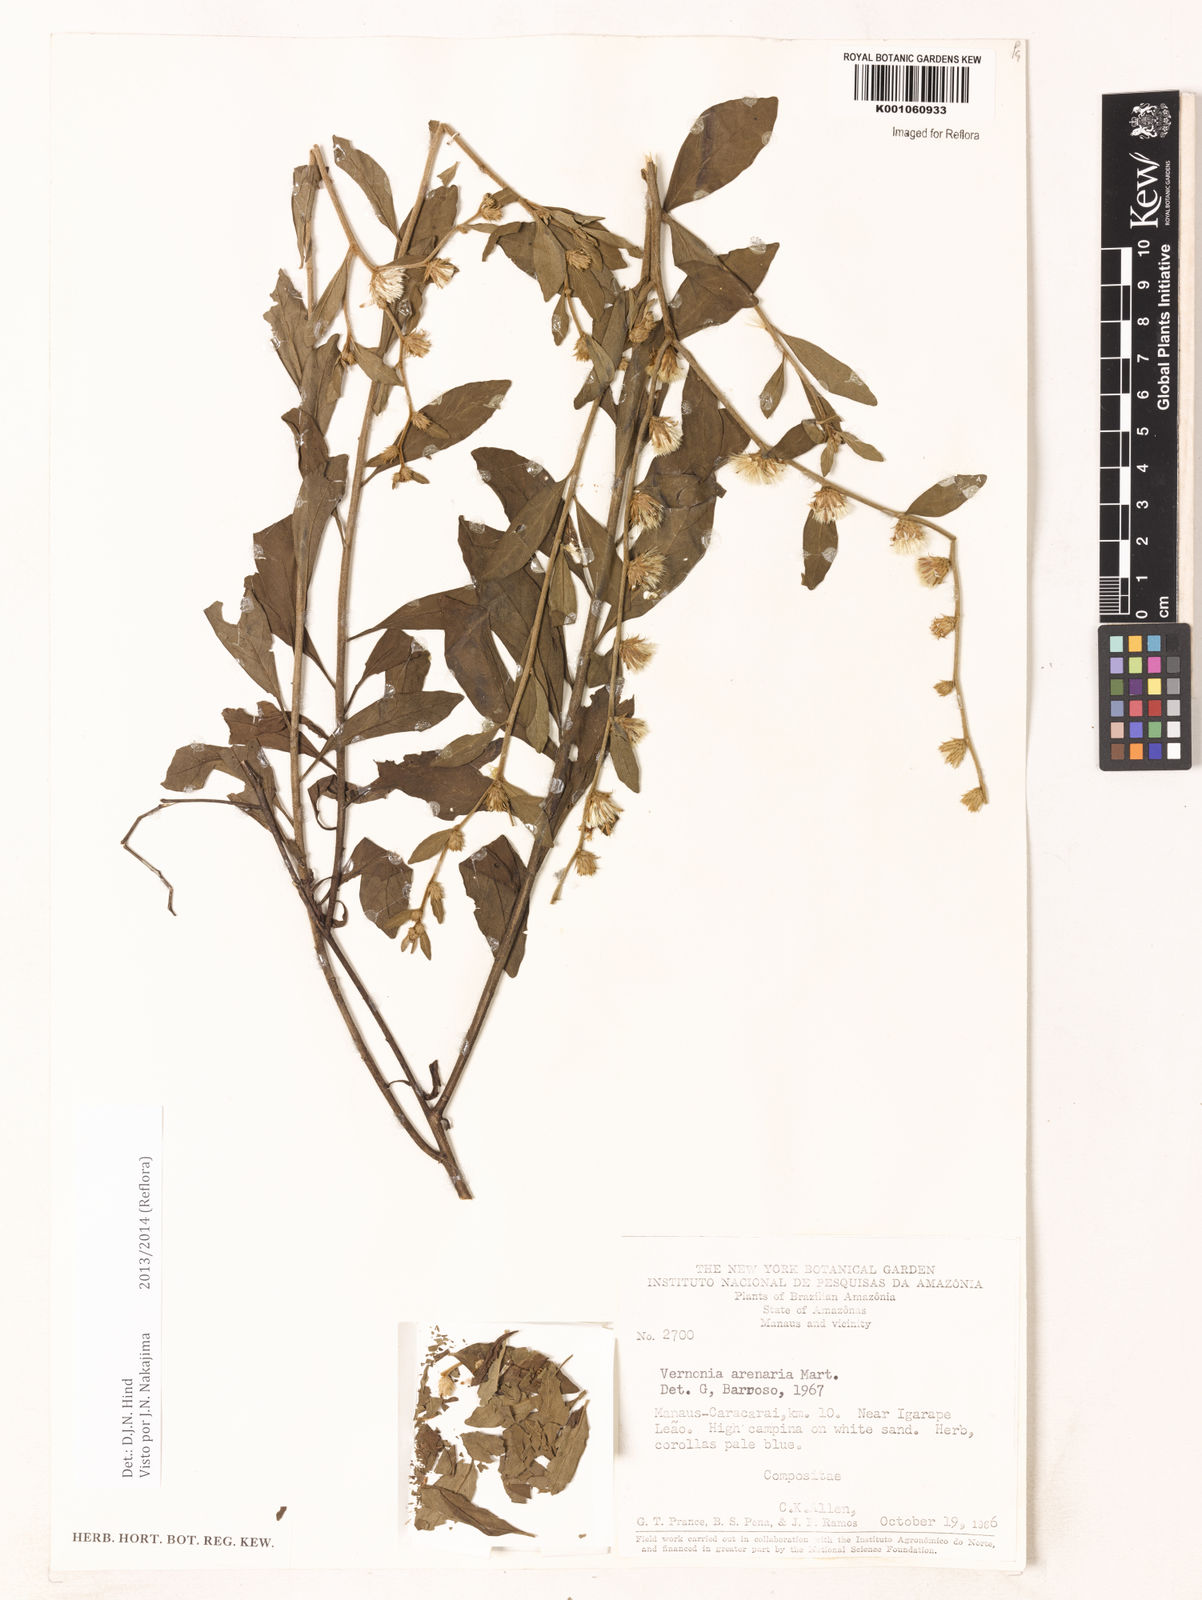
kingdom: Plantae
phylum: Tracheophyta
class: Magnoliopsida
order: Asterales
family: Asteraceae
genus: Lepidaploa
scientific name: Lepidaploa grisea
